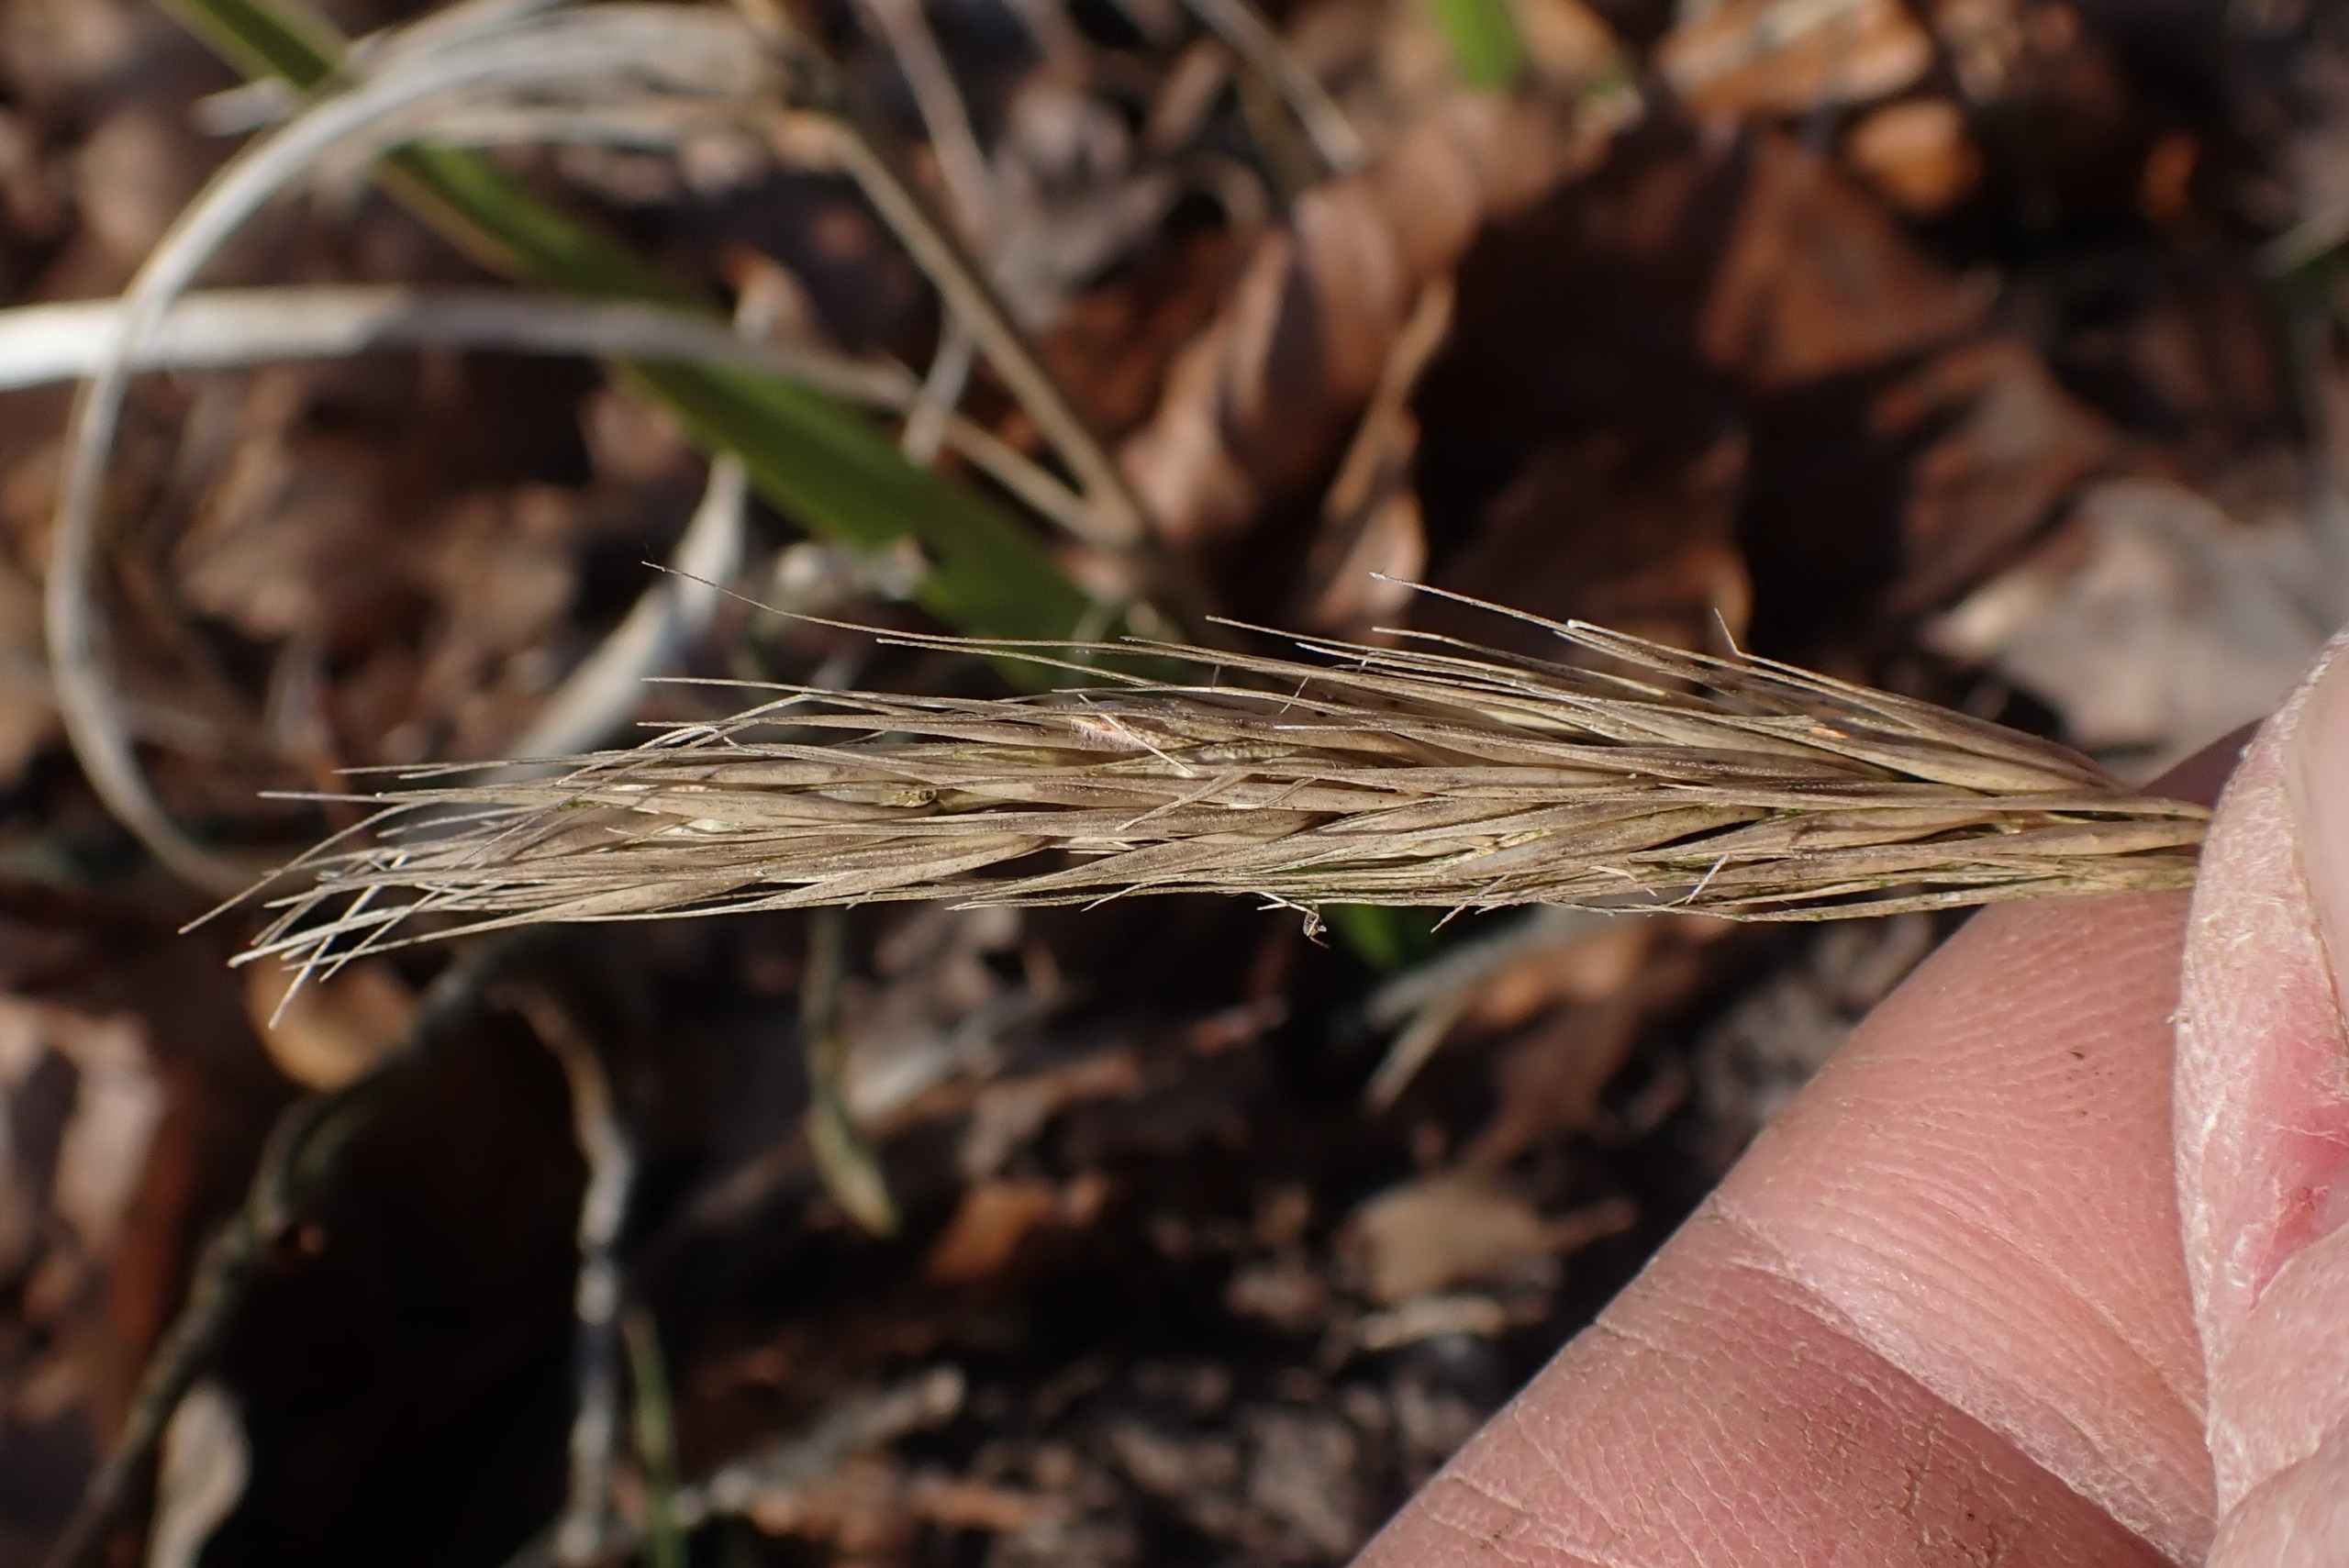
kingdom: Plantae
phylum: Tracheophyta
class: Liliopsida
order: Poales
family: Poaceae
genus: Hordelymus
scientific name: Hordelymus europaeus
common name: Skovbyg
